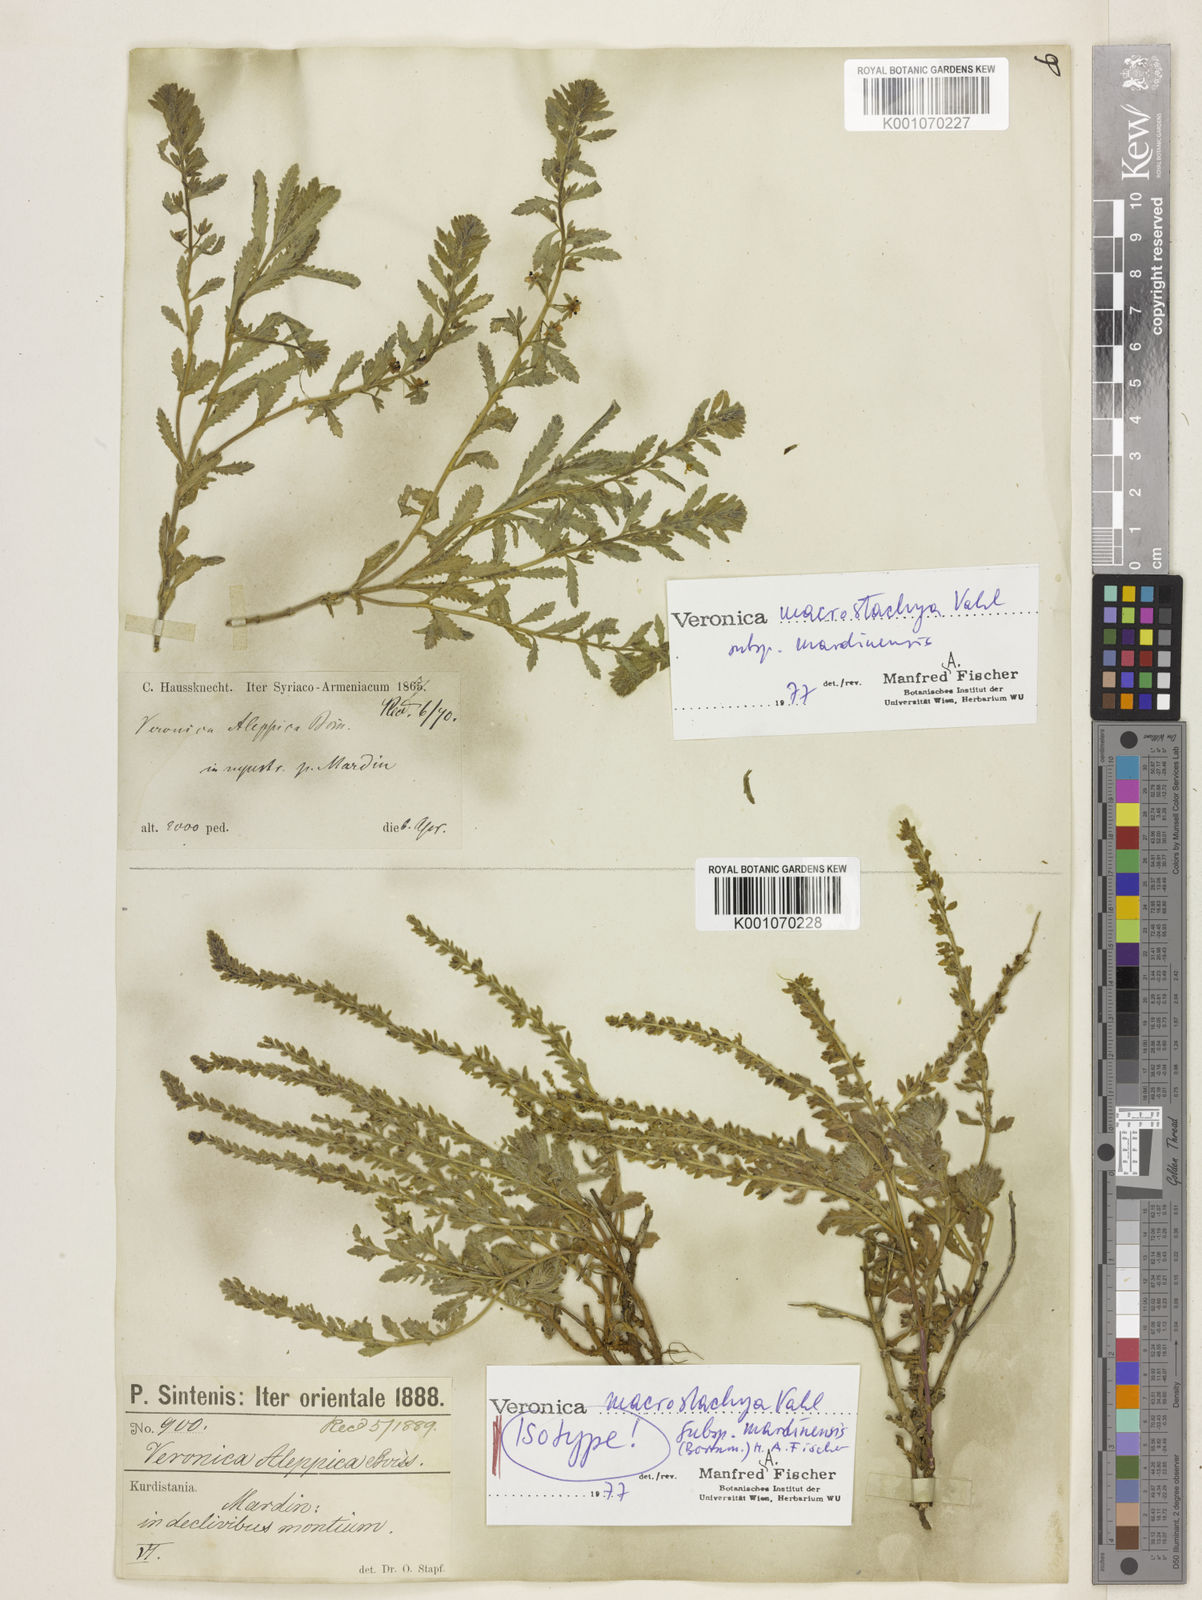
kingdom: Plantae
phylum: Tracheophyta
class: Magnoliopsida
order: Lamiales
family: Plantaginaceae
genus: Veronica
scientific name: Veronica macrostachya
